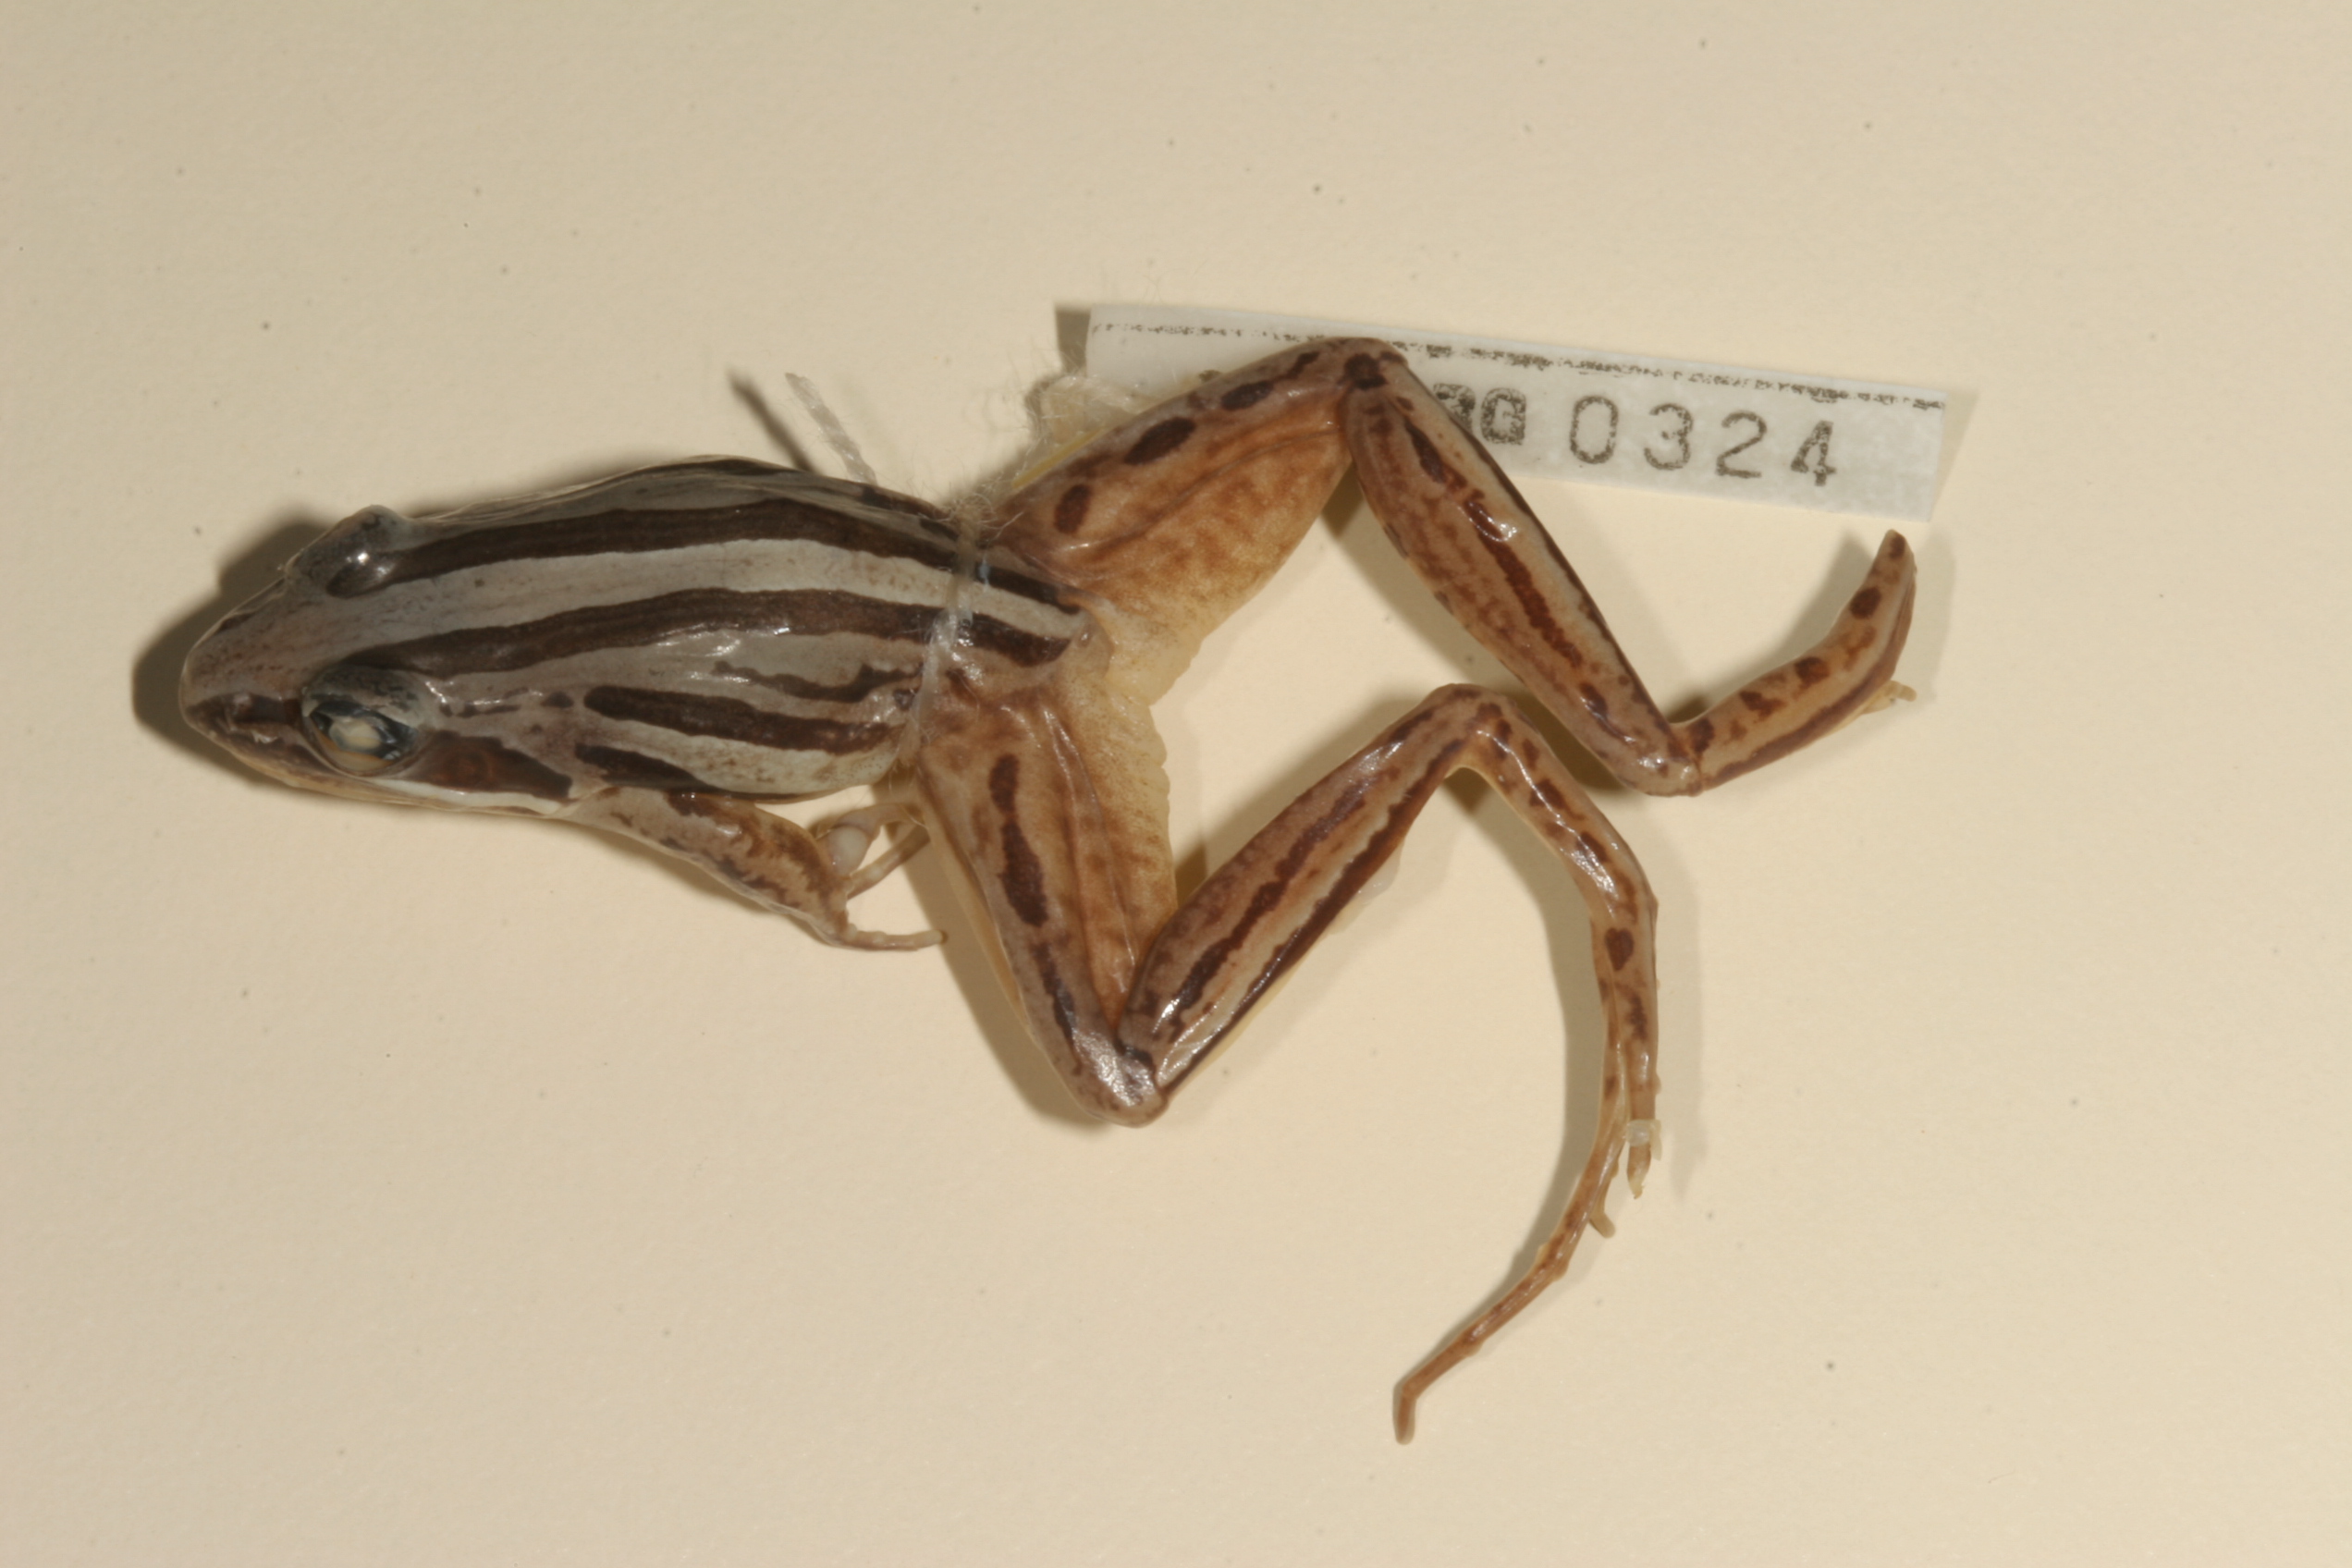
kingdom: Animalia
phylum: Chordata
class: Amphibia
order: Anura
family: Pyxicephalidae
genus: Strongylopus
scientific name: Strongylopus fasciatus
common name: Striped stream frog
